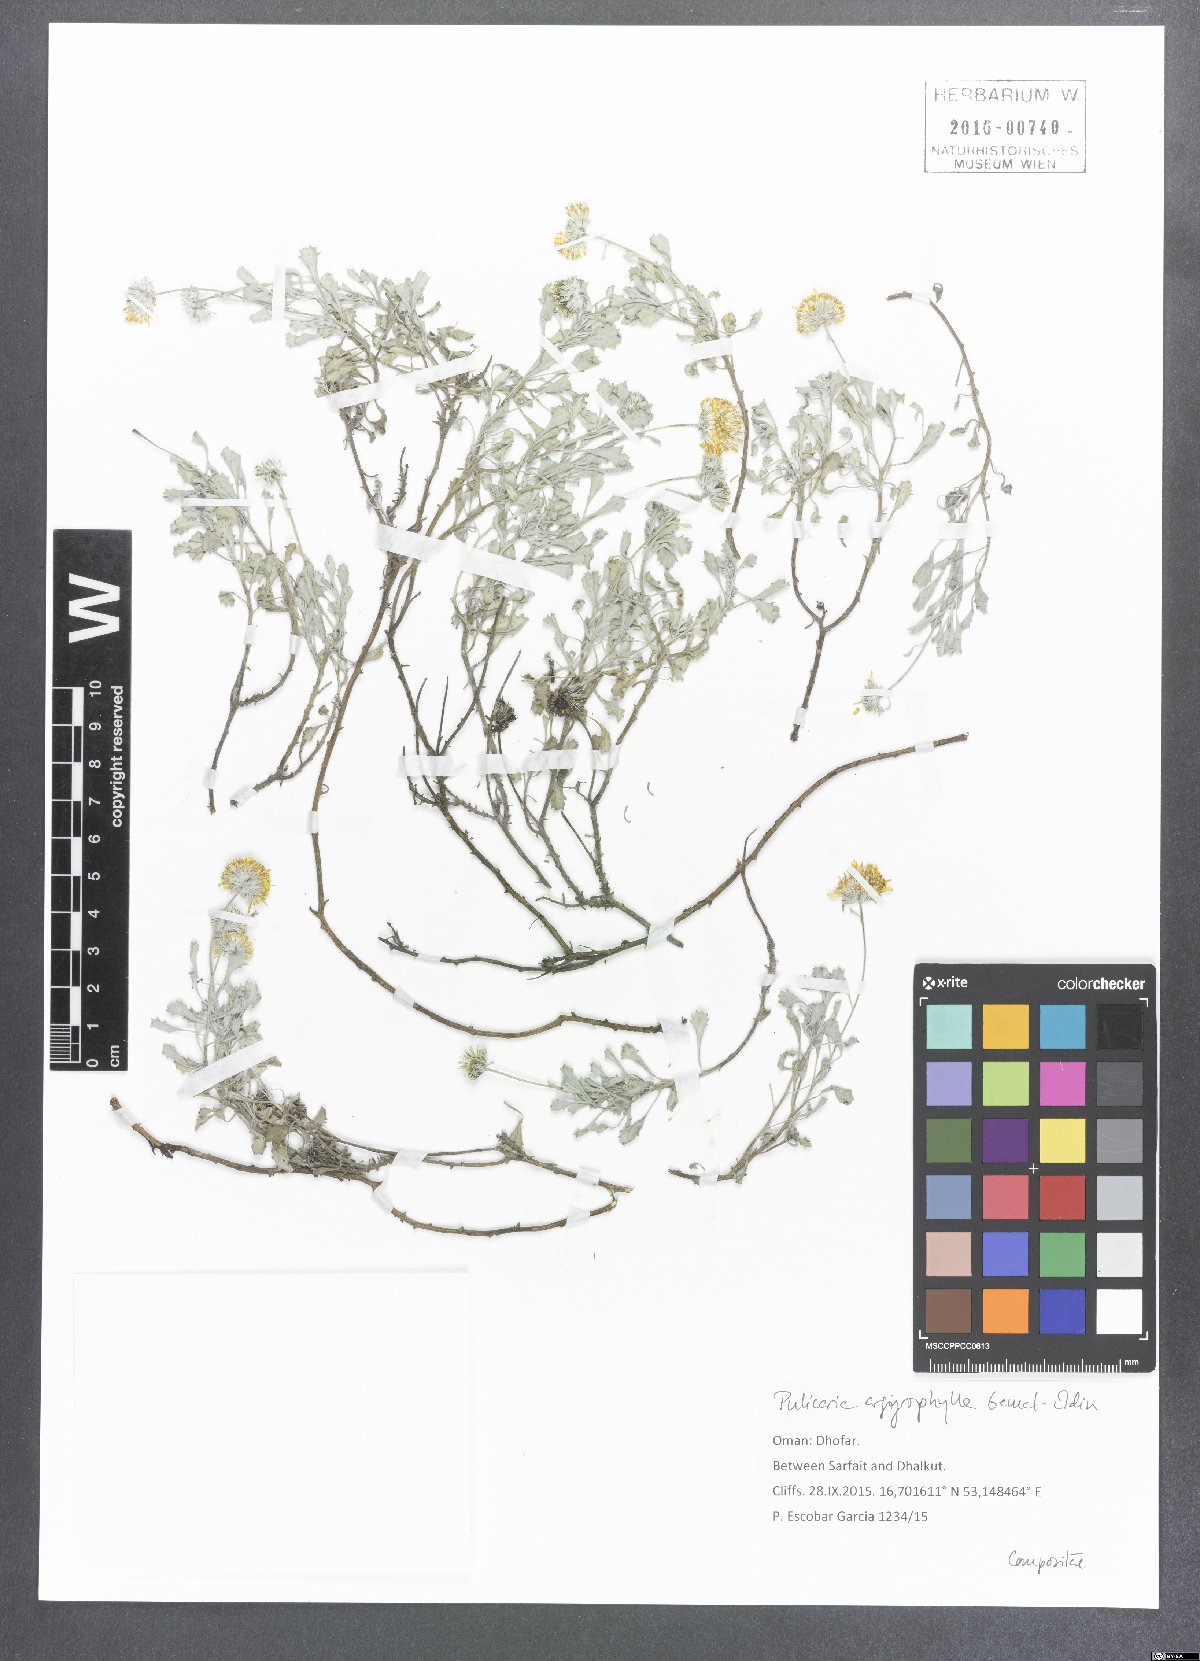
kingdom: Plantae
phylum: Tracheophyta
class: Magnoliopsida
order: Asterales
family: Asteraceae
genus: Pulicaria
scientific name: Pulicaria argyrophylla
